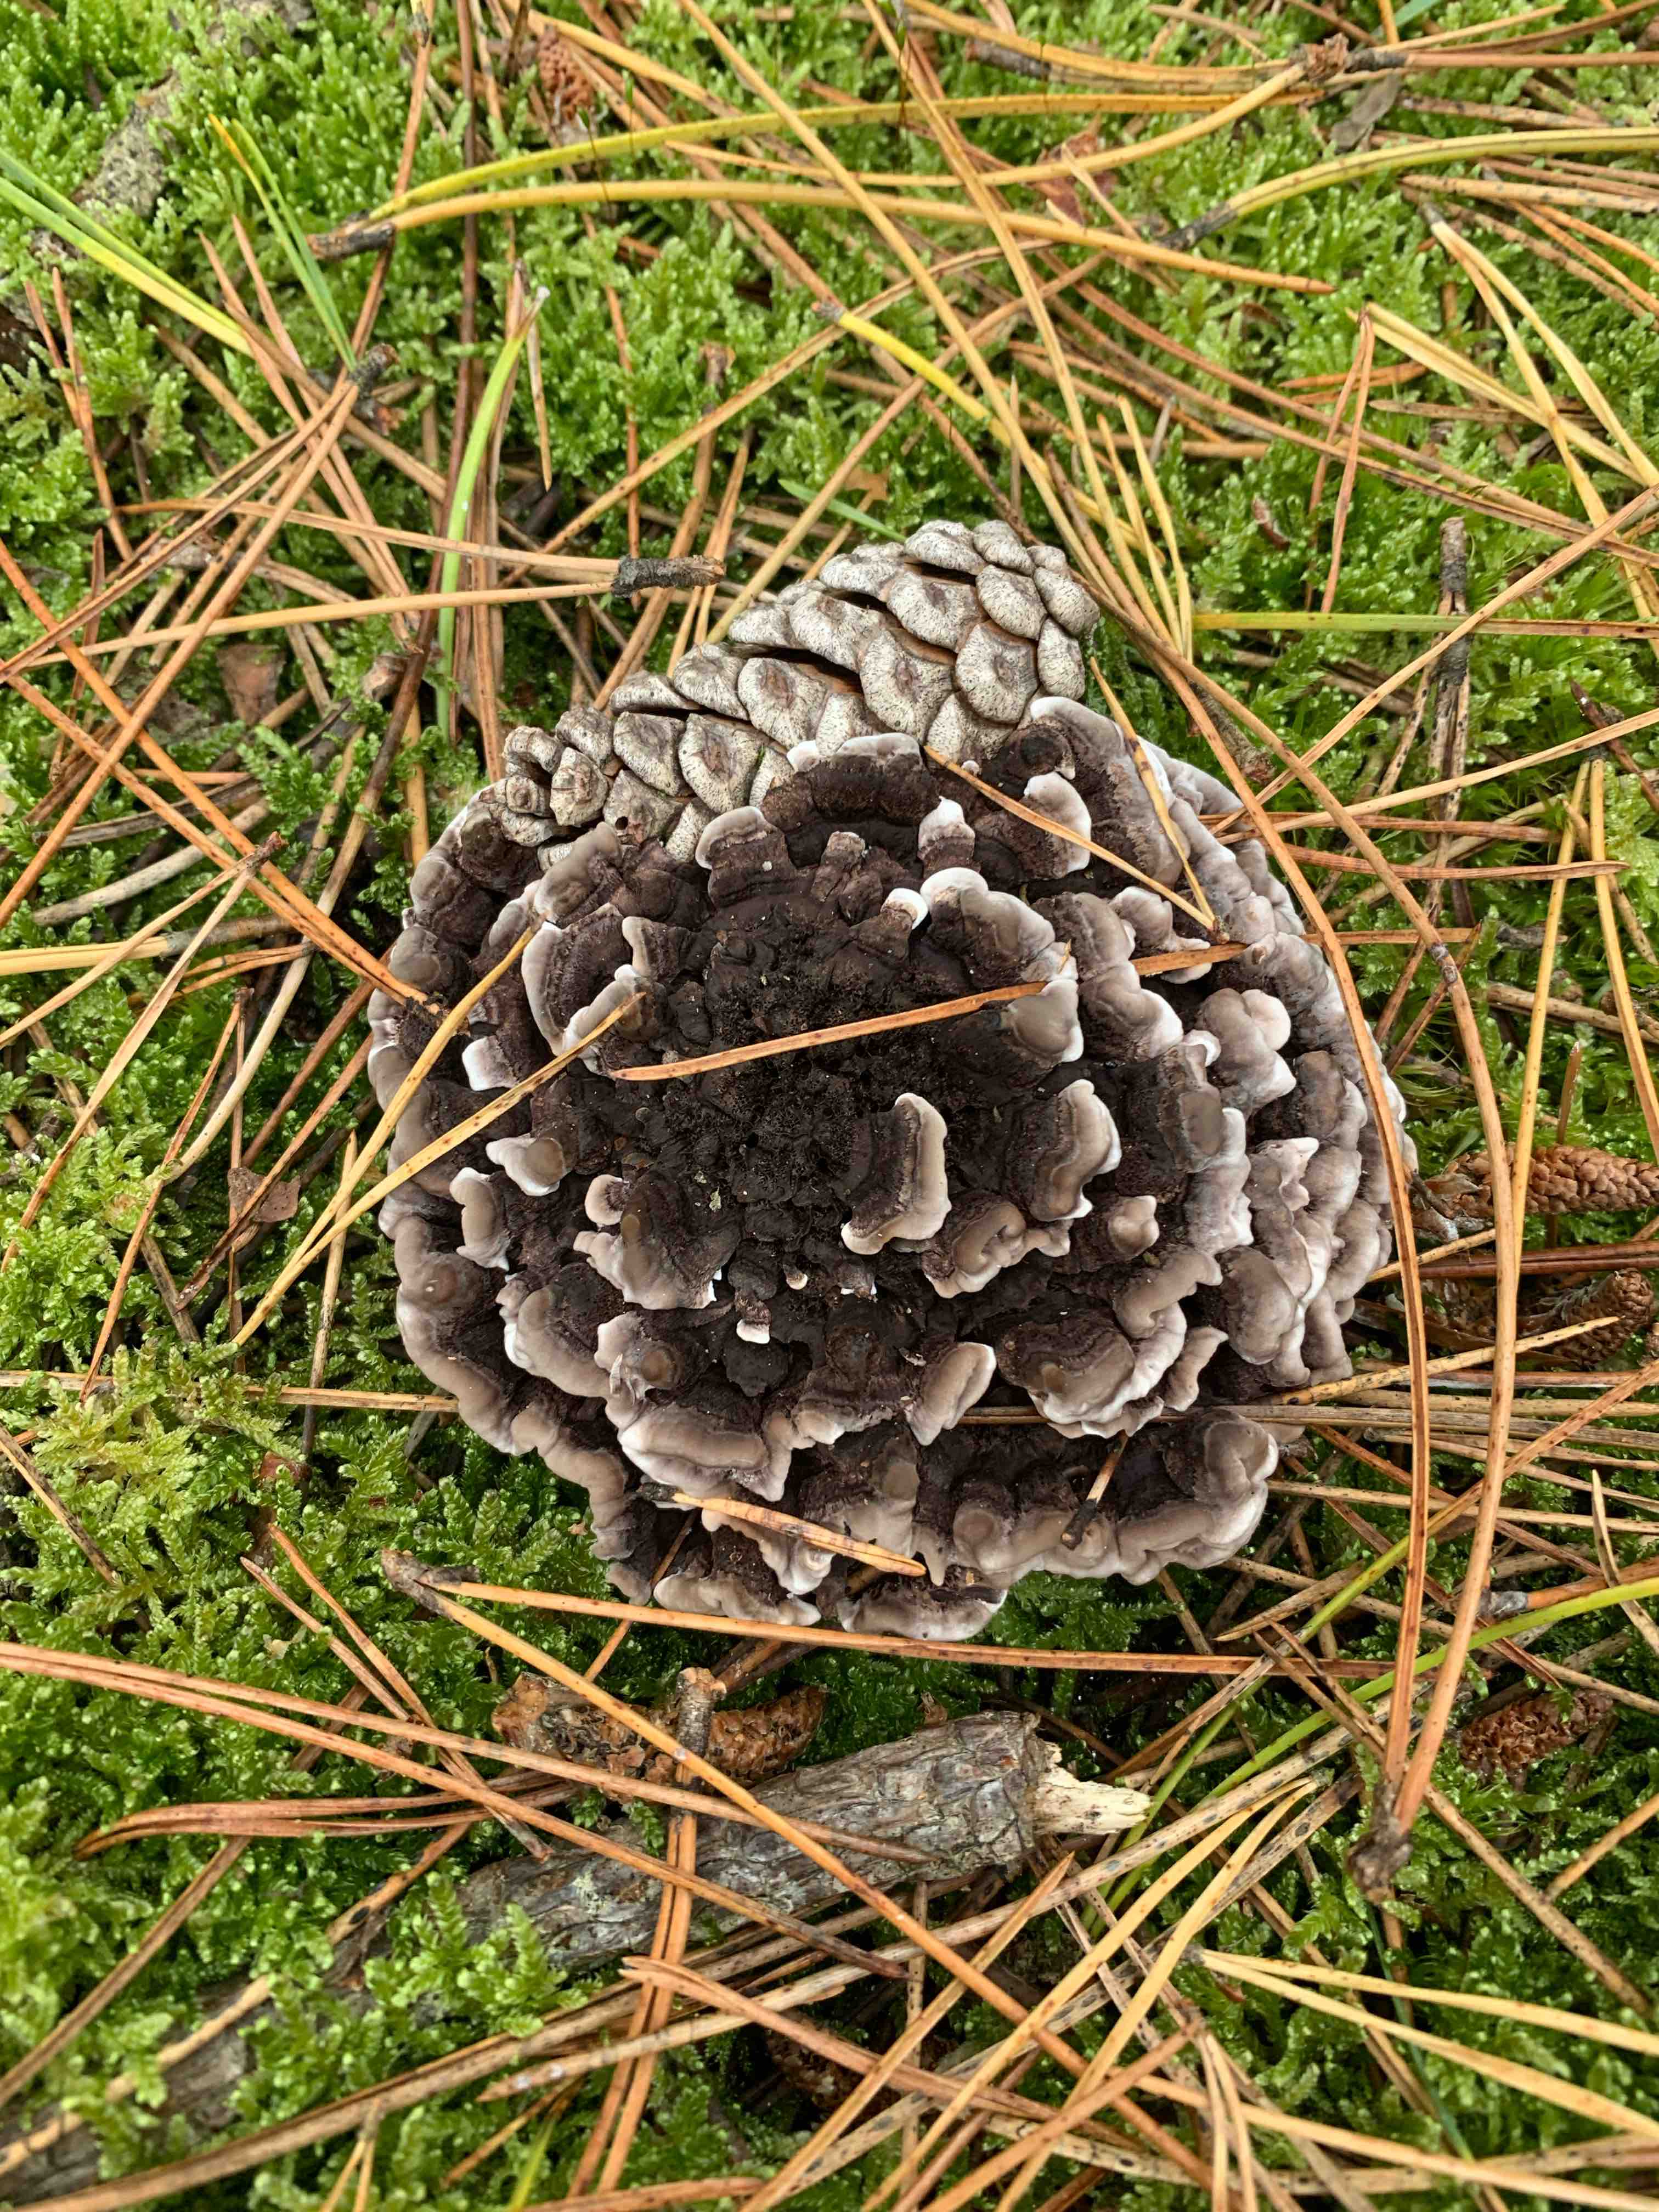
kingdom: Fungi
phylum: Basidiomycota
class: Agaricomycetes
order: Thelephorales
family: Thelephoraceae
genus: Phellodon
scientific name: Phellodon tomentosus
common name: vellugtende duftpigsvamp
